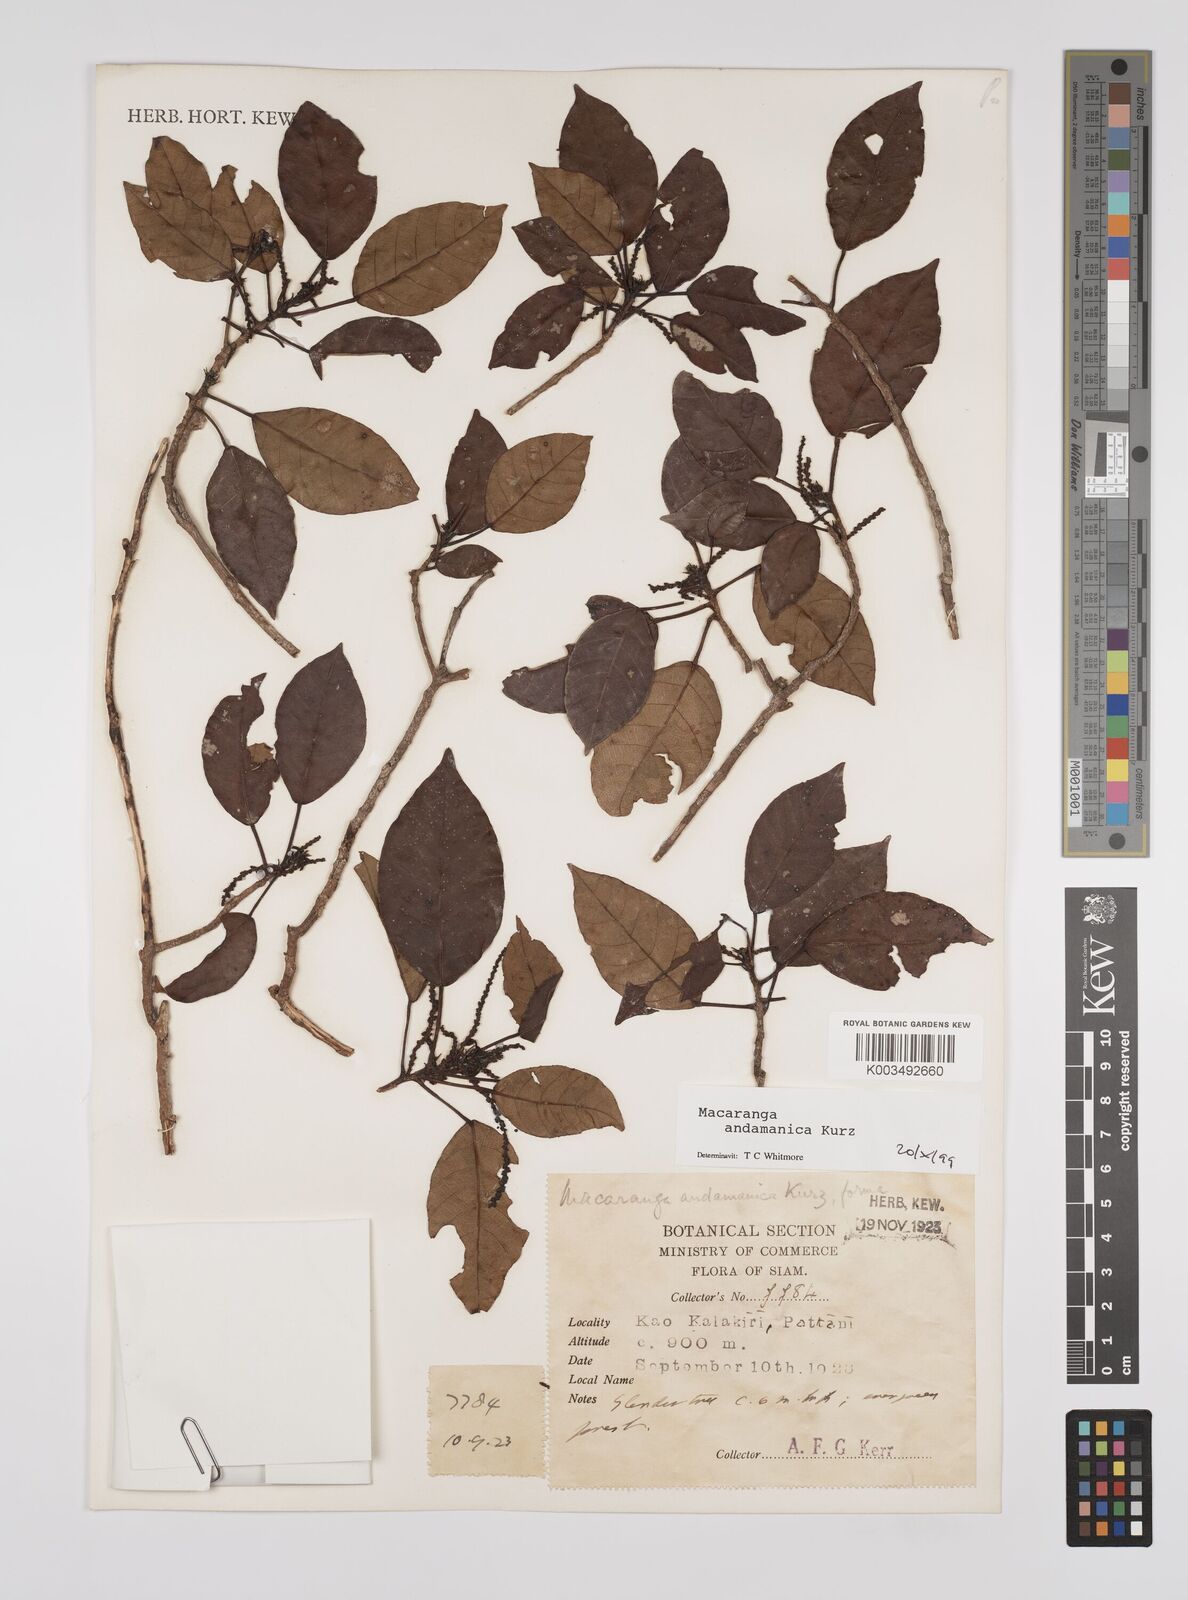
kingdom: Plantae
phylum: Tracheophyta
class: Magnoliopsida
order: Malpighiales
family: Euphorbiaceae
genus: Macaranga
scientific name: Macaranga andamanica
